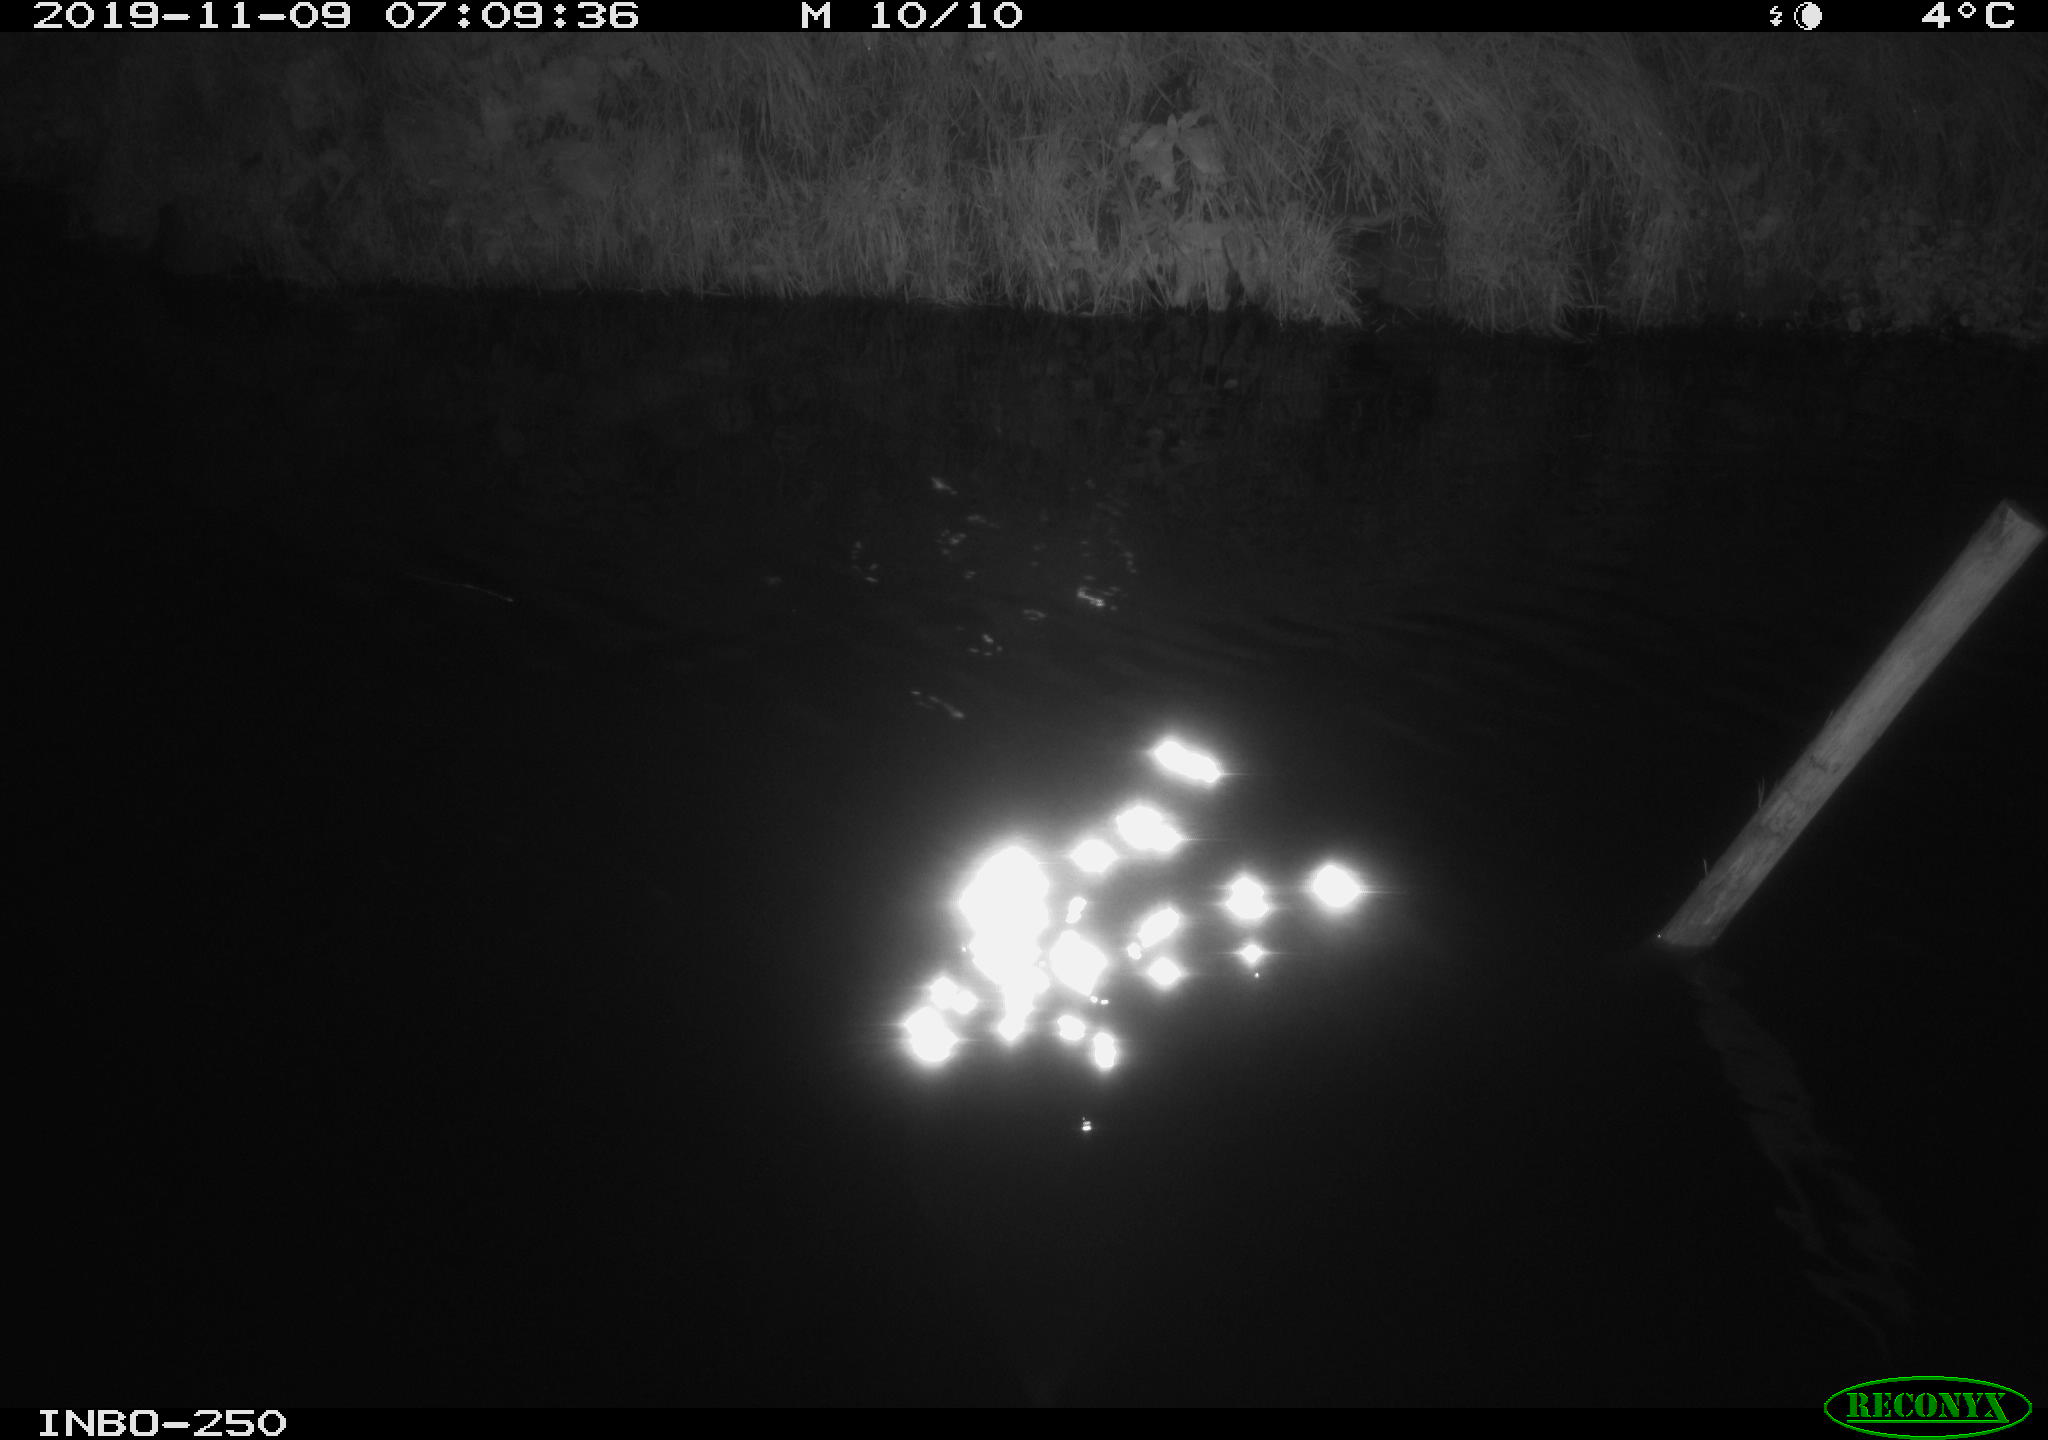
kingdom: Animalia
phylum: Chordata
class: Aves
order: Anseriformes
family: Anatidae
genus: Anas
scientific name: Anas platyrhynchos
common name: Mallard
